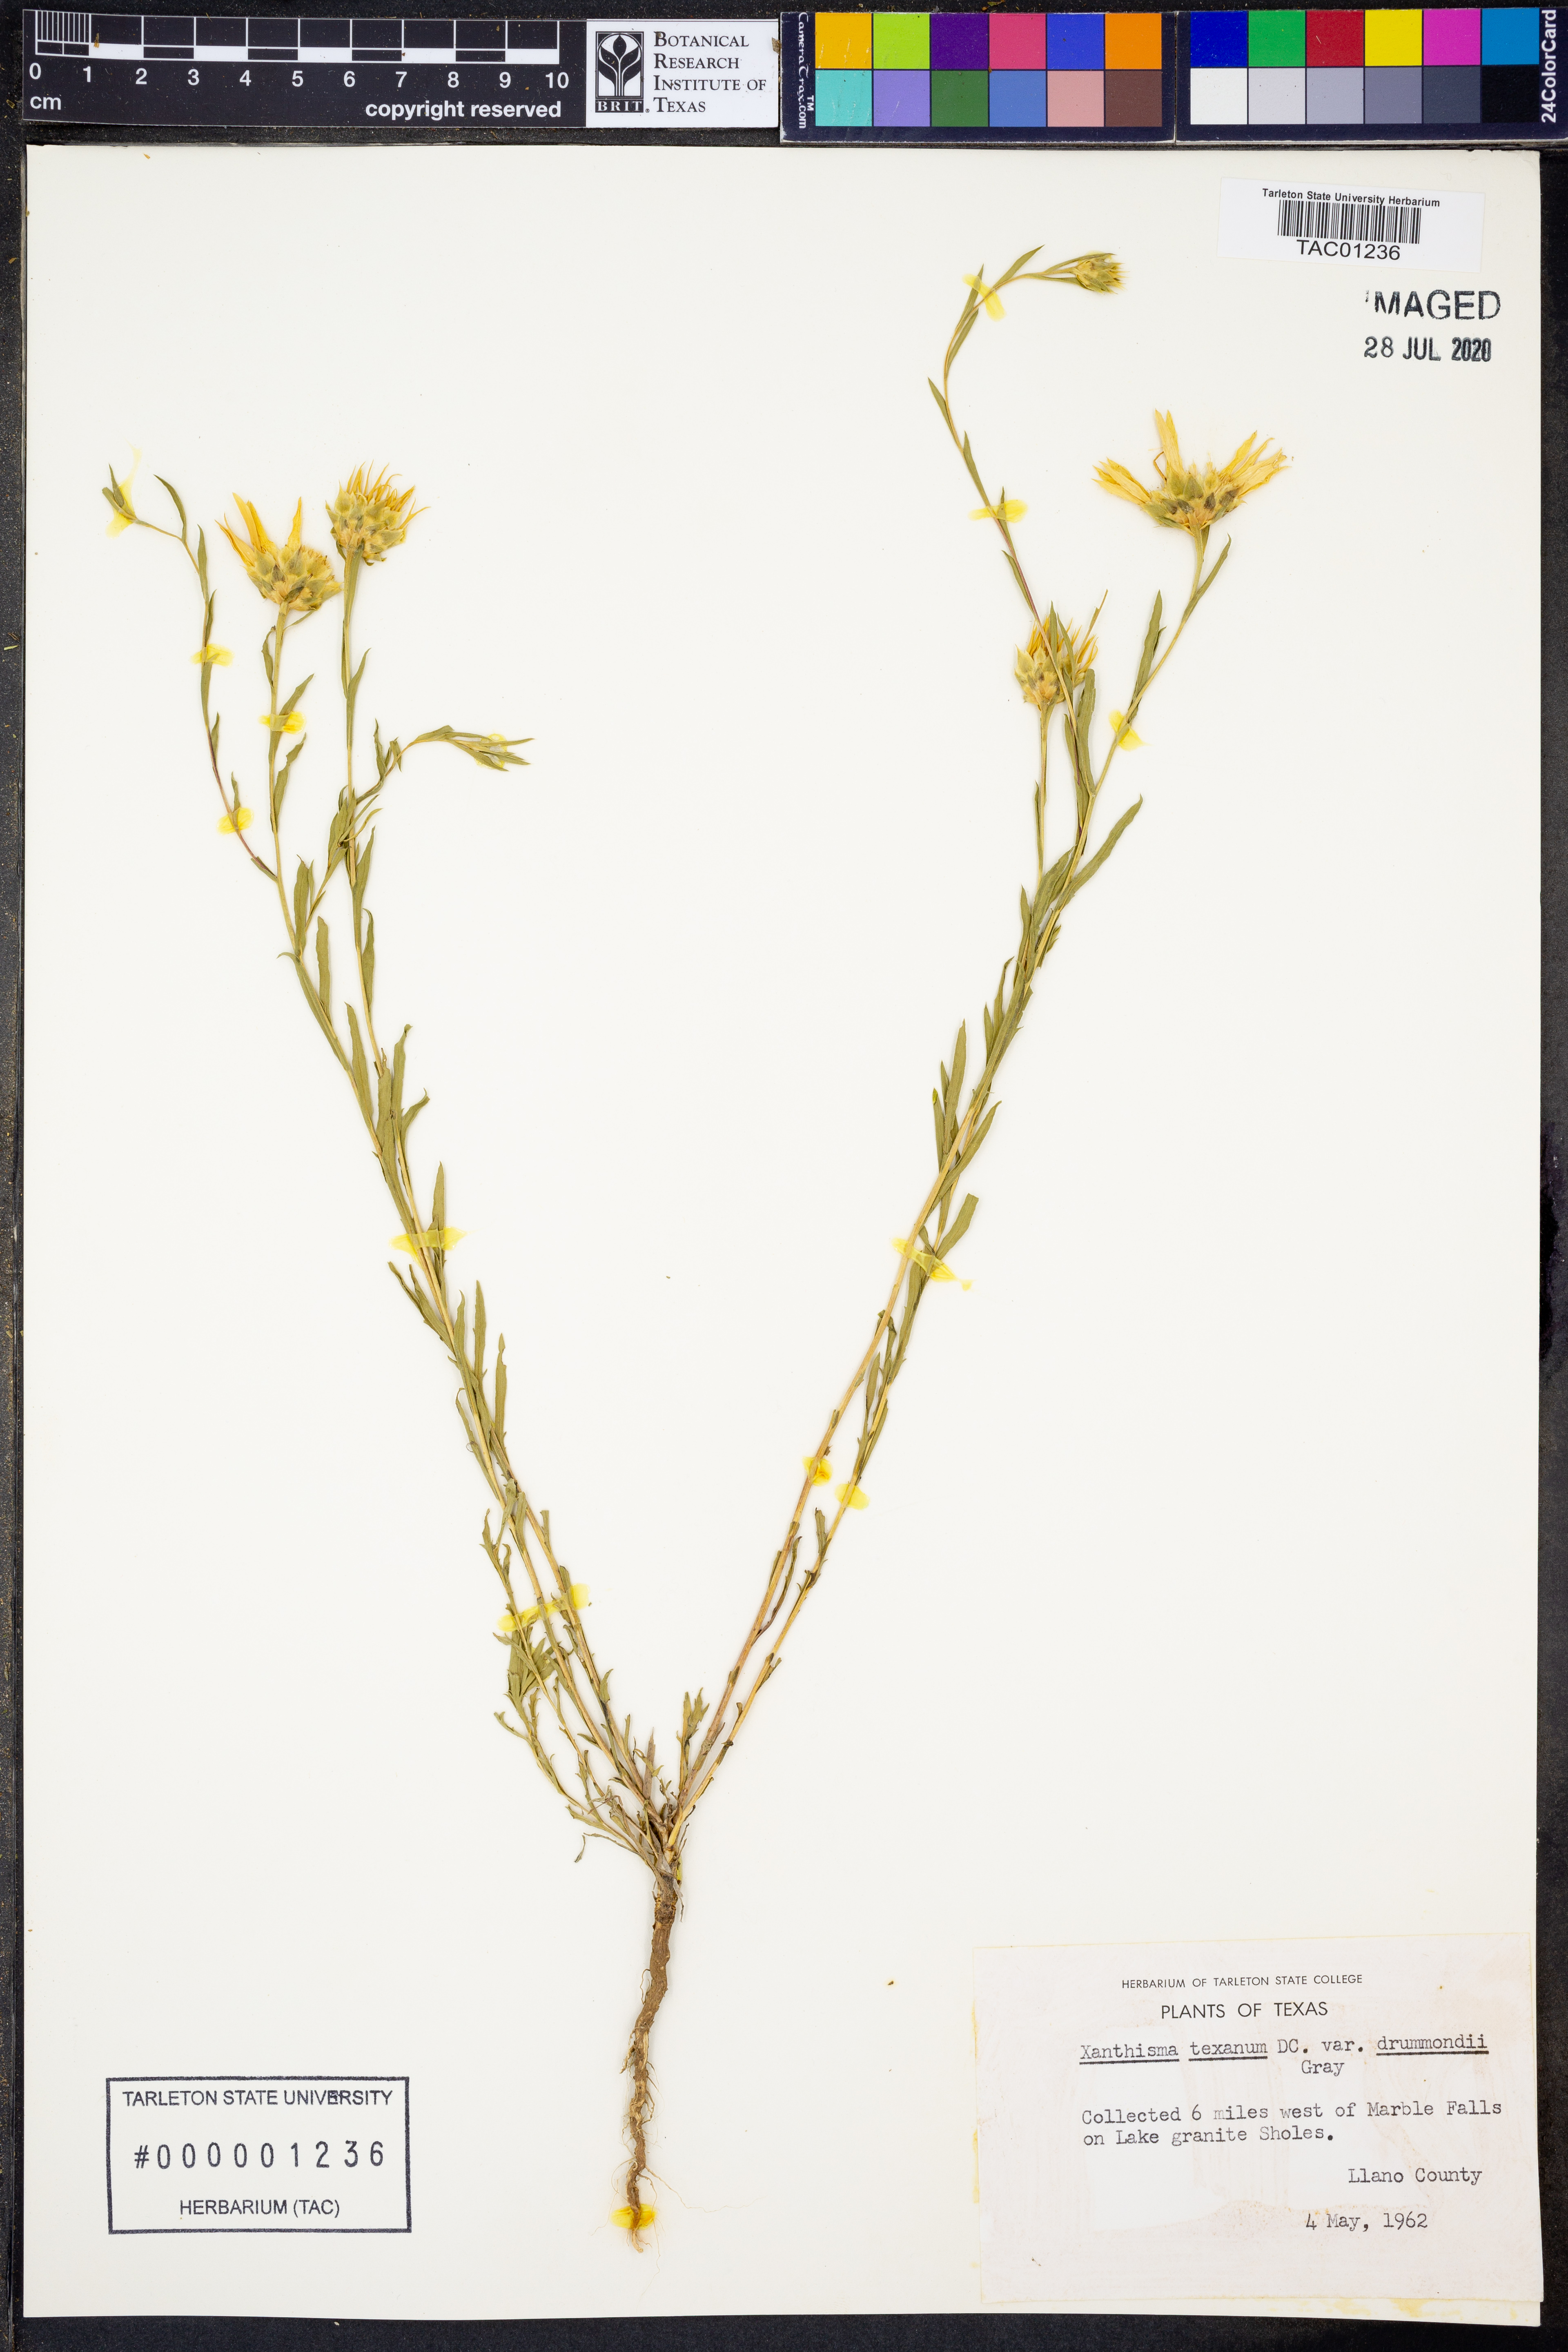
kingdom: Plantae
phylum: Tracheophyta
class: Magnoliopsida
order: Asterales
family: Asteraceae
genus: Xanthisma
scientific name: Xanthisma texanum
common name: Texas sleepy daisy
